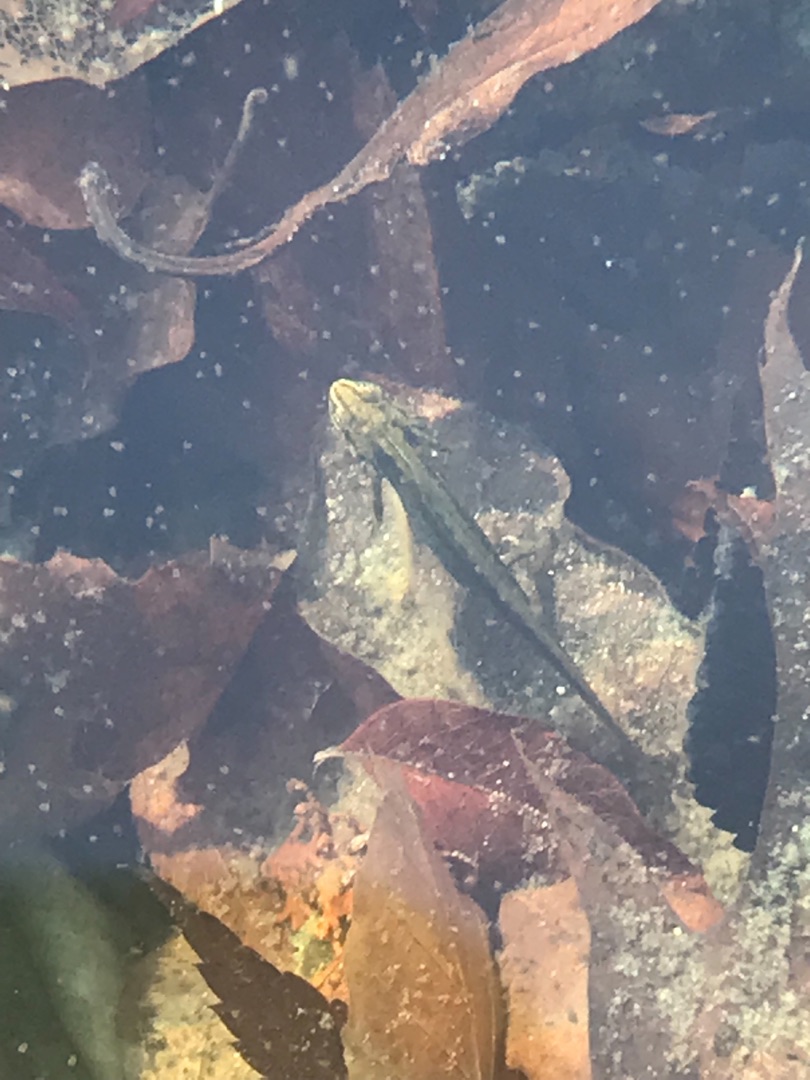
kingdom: Animalia
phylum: Chordata
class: Amphibia
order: Caudata
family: Salamandridae
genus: Lissotriton
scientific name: Lissotriton vulgaris
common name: Lille vandsalamander
